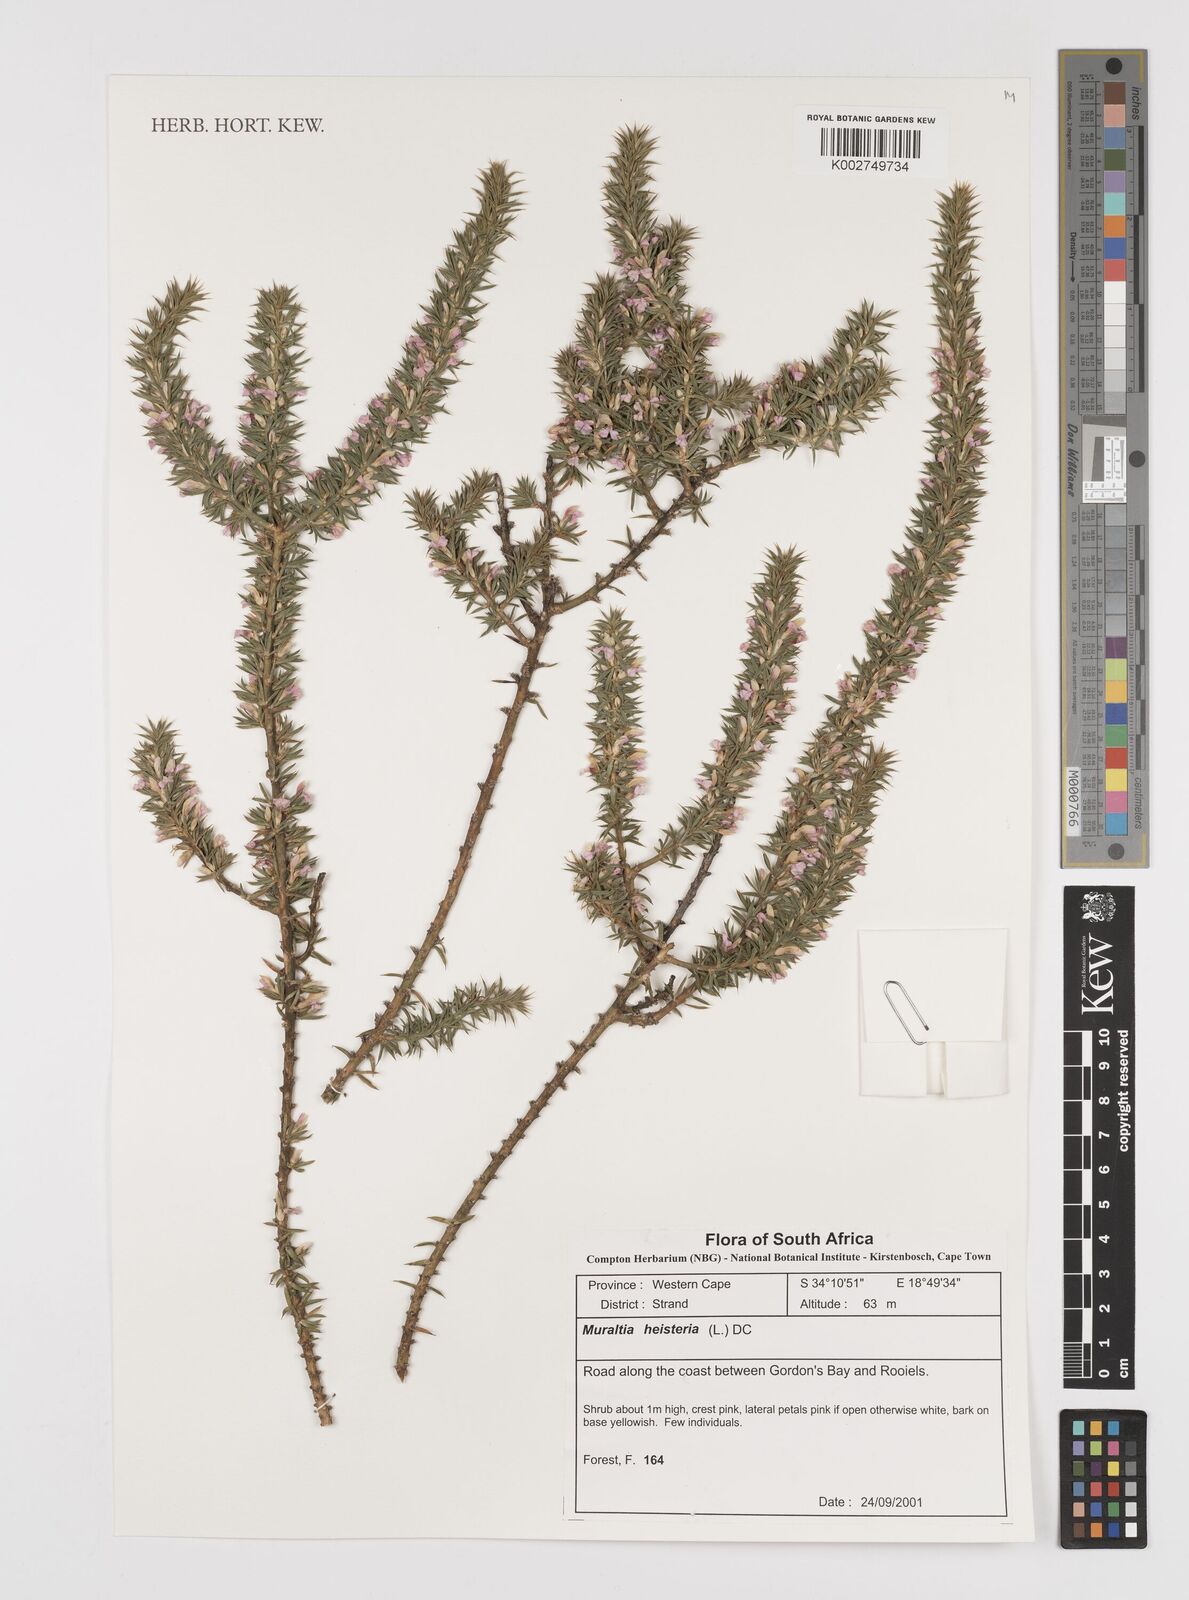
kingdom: Plantae
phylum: Tracheophyta
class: Magnoliopsida
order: Fabales
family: Polygalaceae
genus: Muraltia
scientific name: Muraltia heisteria
